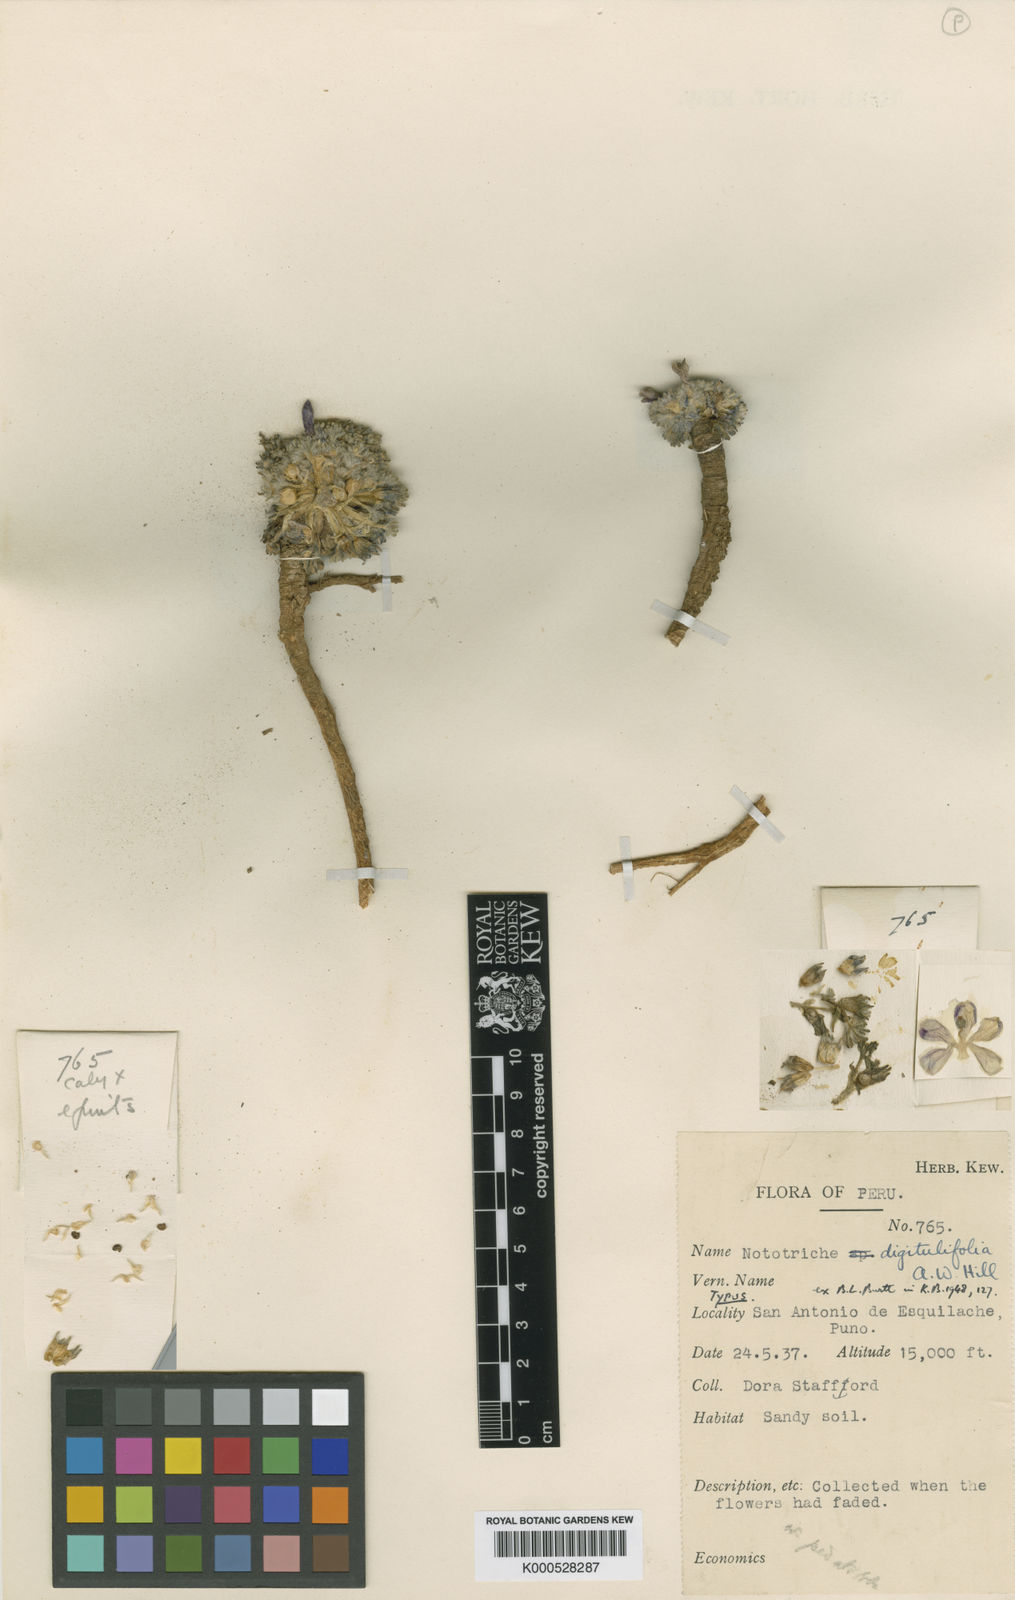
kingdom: Plantae
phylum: Tracheophyta
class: Magnoliopsida
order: Malvales
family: Malvaceae
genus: Nototriche
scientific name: Nototriche digitulifolia
